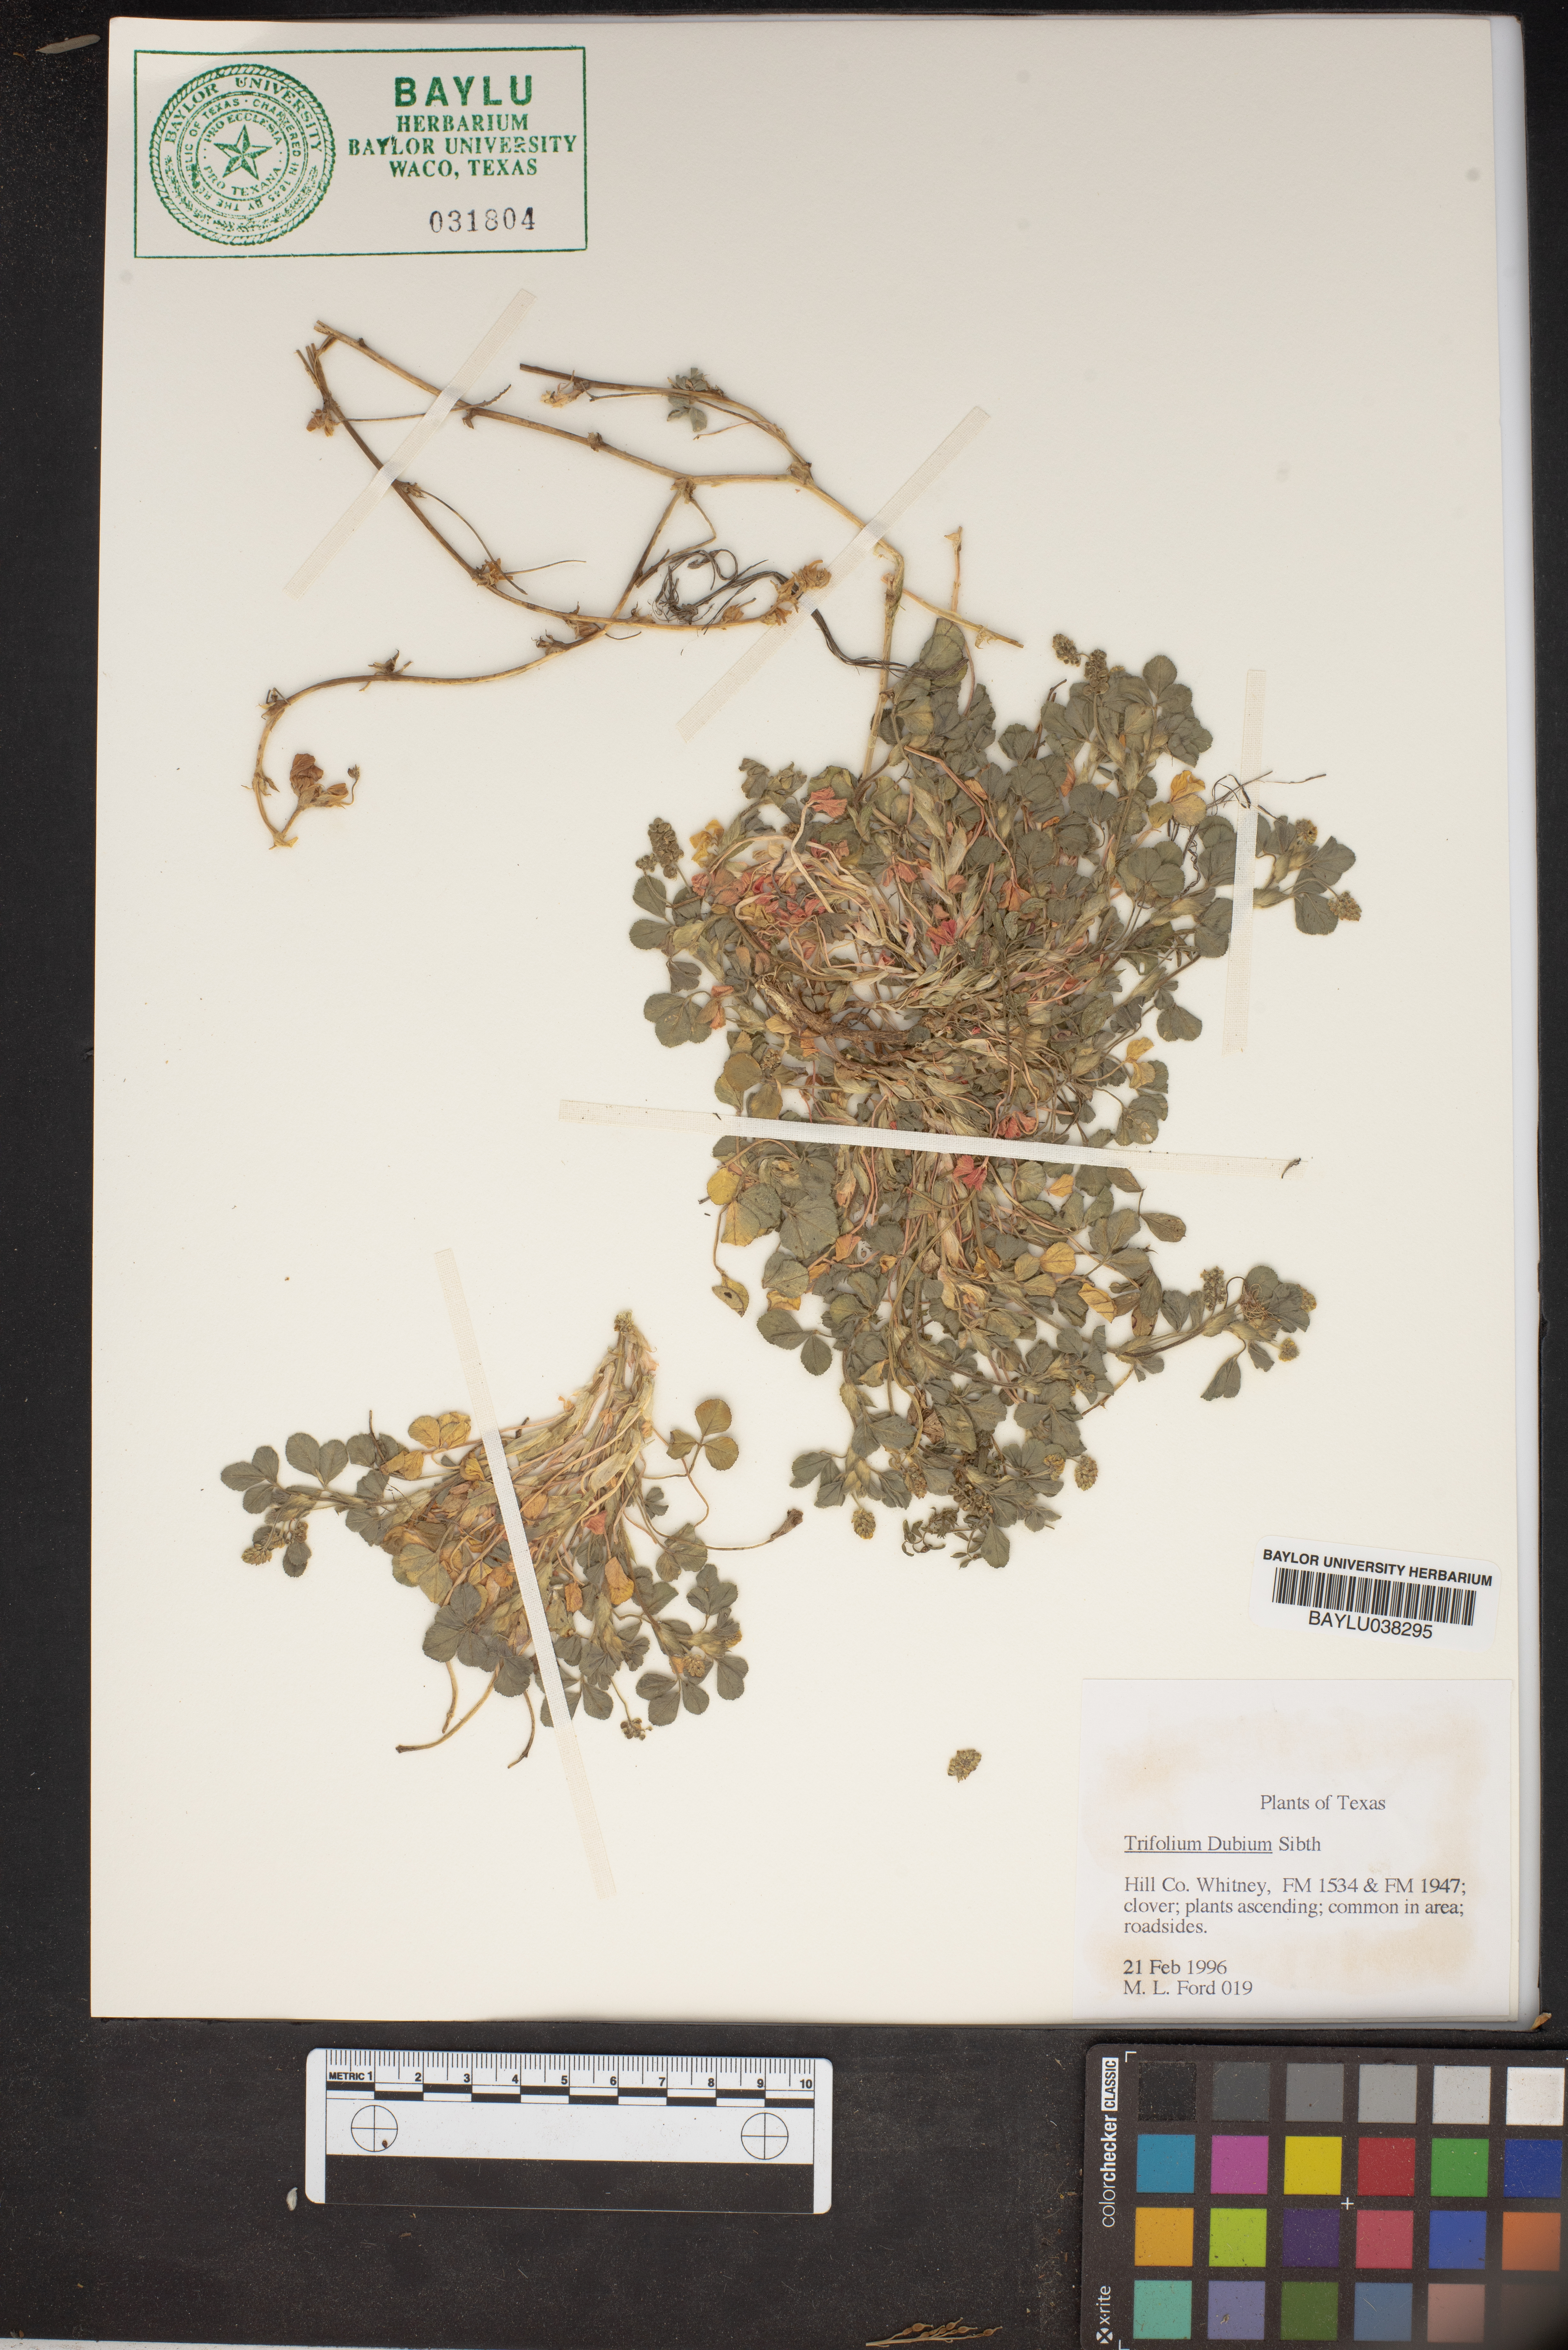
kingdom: Plantae
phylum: Tracheophyta
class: Magnoliopsida
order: Fabales
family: Fabaceae
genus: Trifolium
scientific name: Trifolium dubium
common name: Suckling clover
